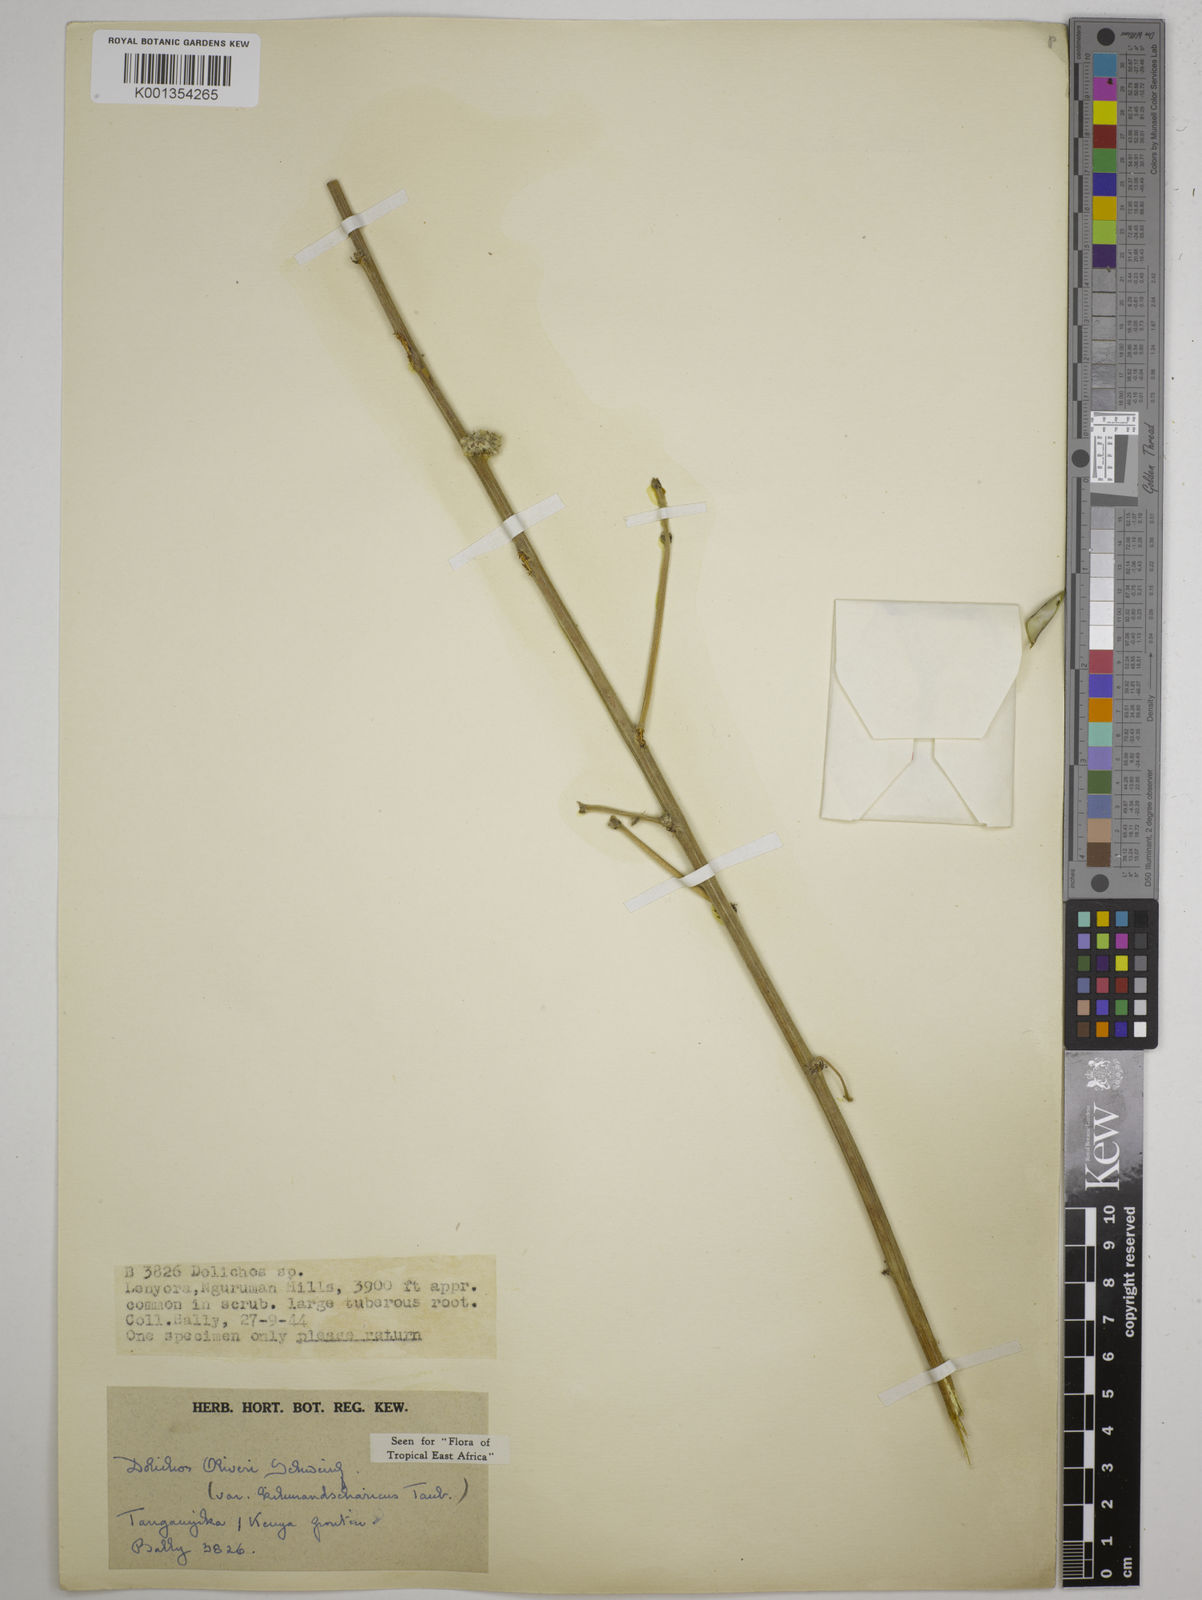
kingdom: Plantae
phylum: Tracheophyta
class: Magnoliopsida
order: Fabales
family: Fabaceae
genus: Dolichos
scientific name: Dolichos
